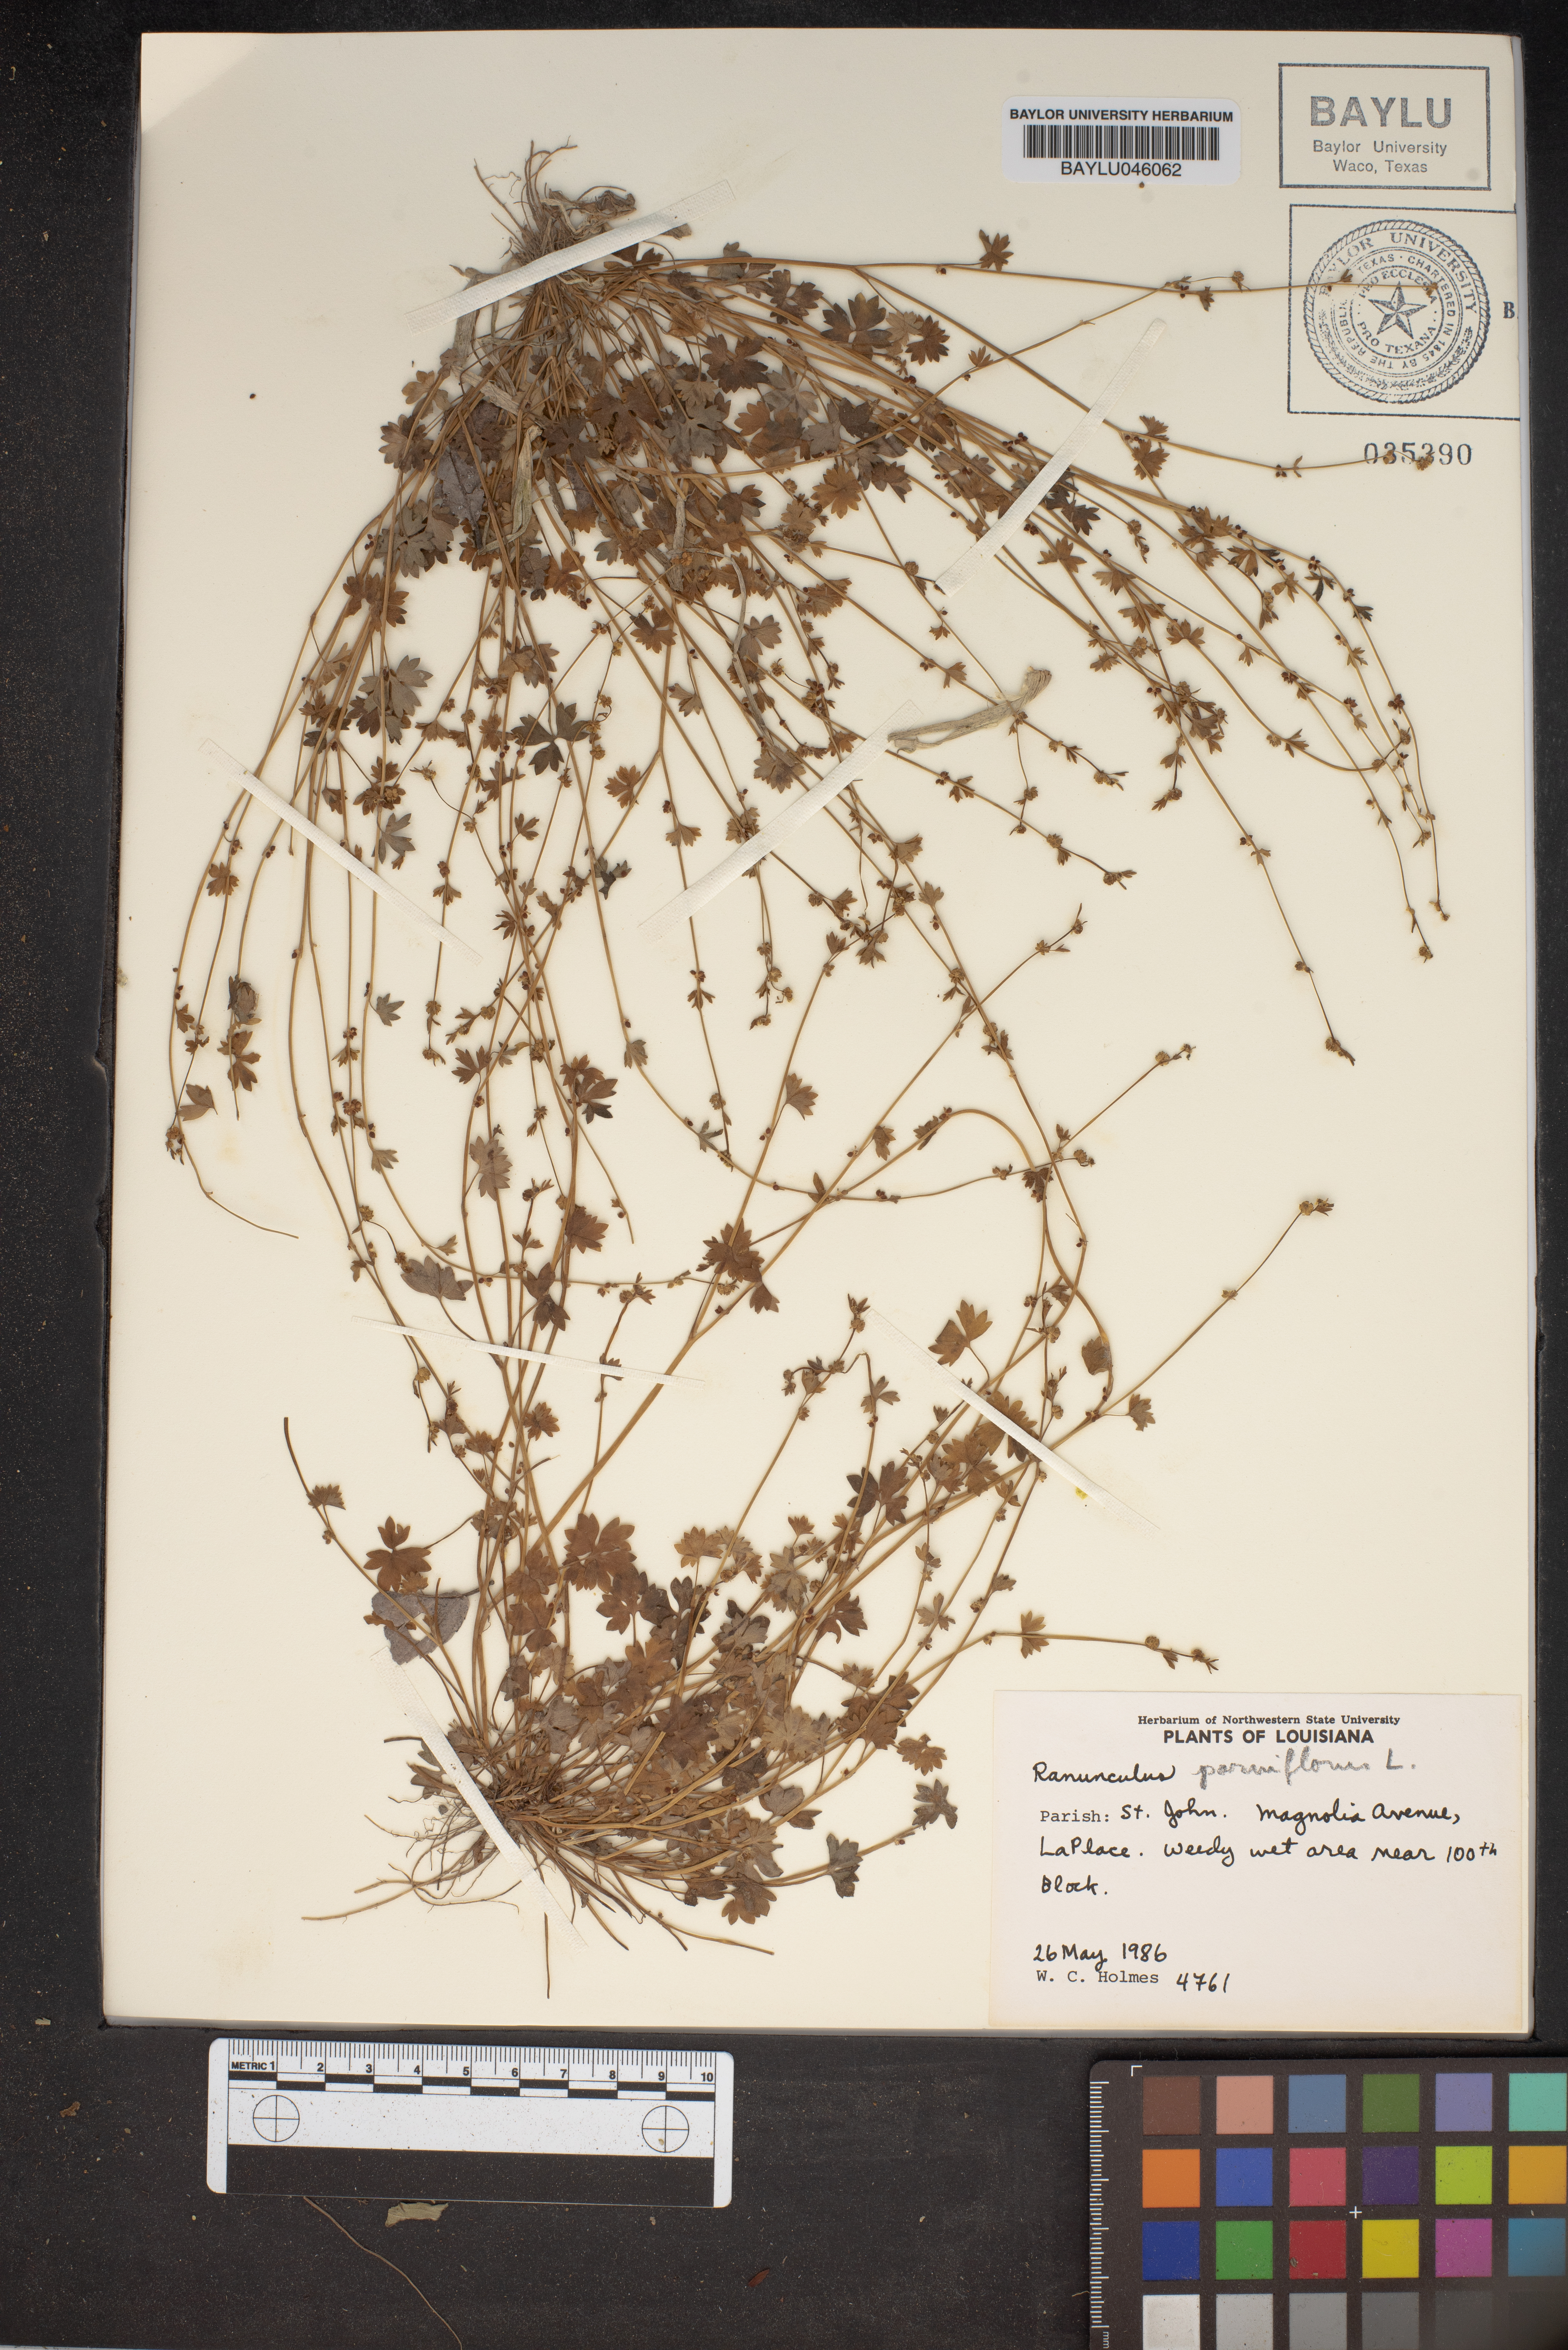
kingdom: Plantae
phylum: Tracheophyta
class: Magnoliopsida
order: Ranunculales
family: Ranunculaceae
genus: Ranunculus
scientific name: Ranunculus parviflorus
